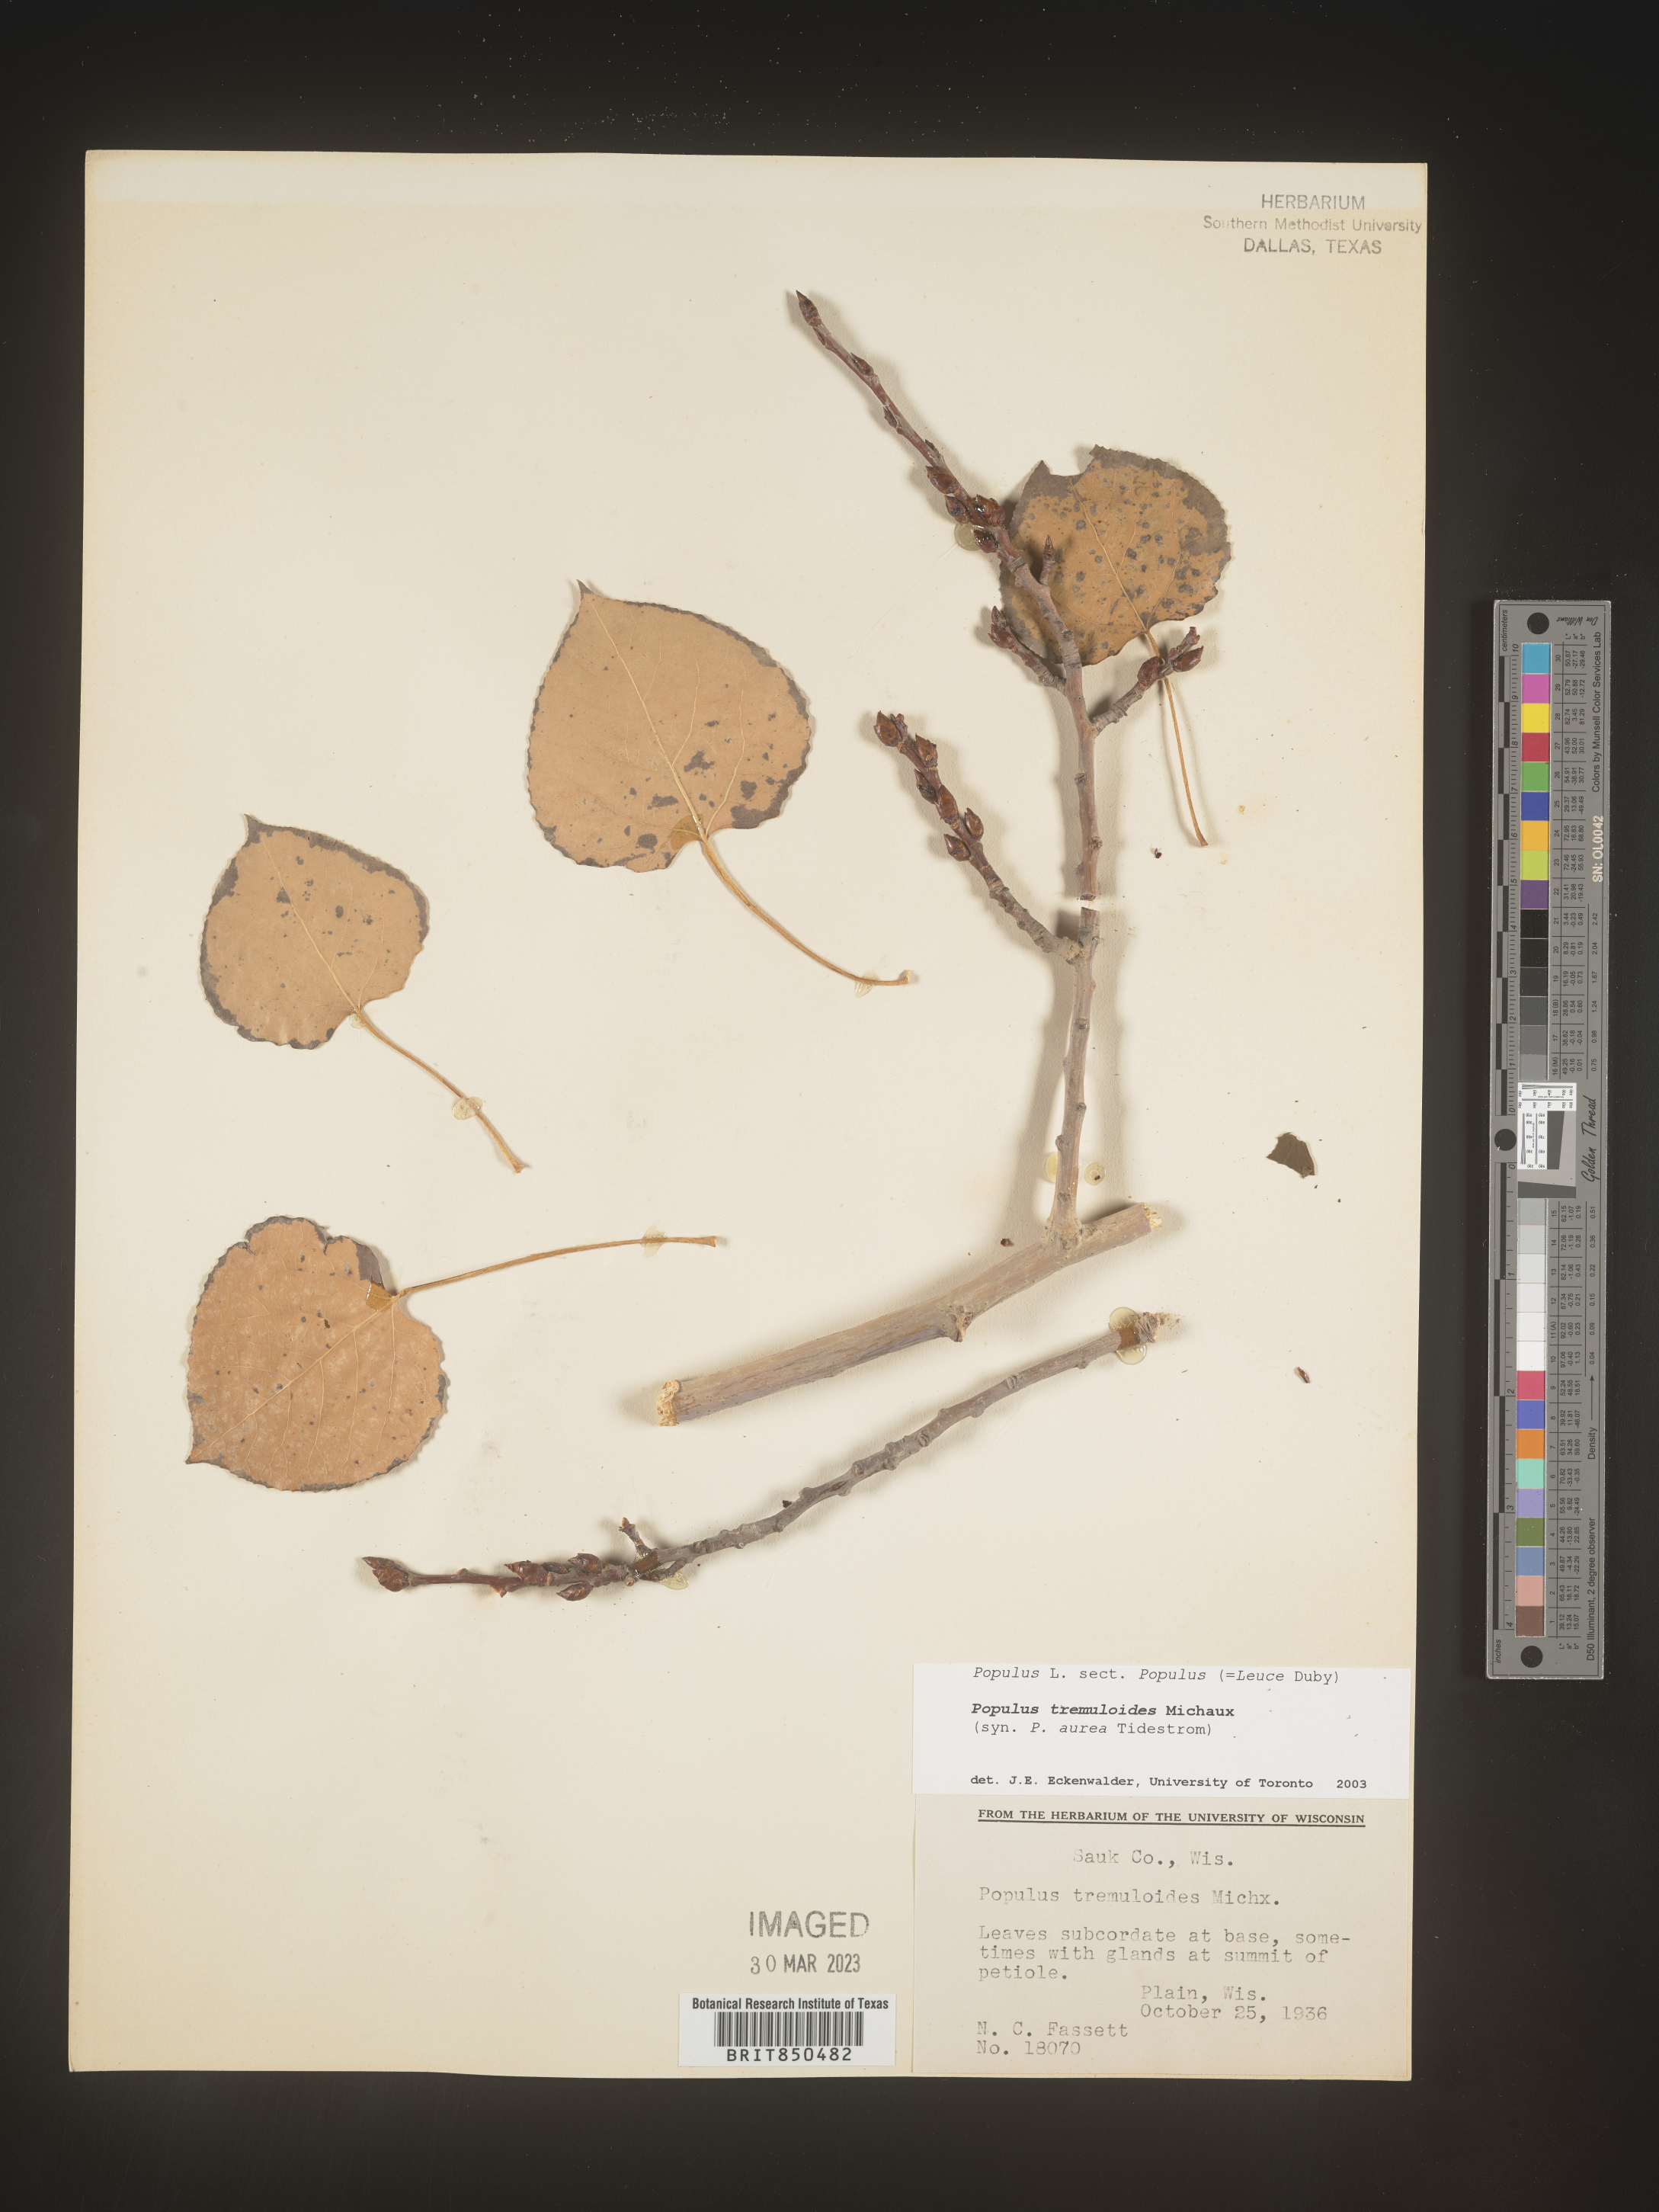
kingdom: Plantae
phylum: Tracheophyta
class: Magnoliopsida
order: Malpighiales
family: Salicaceae
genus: Populus
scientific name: Populus tremuloides
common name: Quaking aspen
